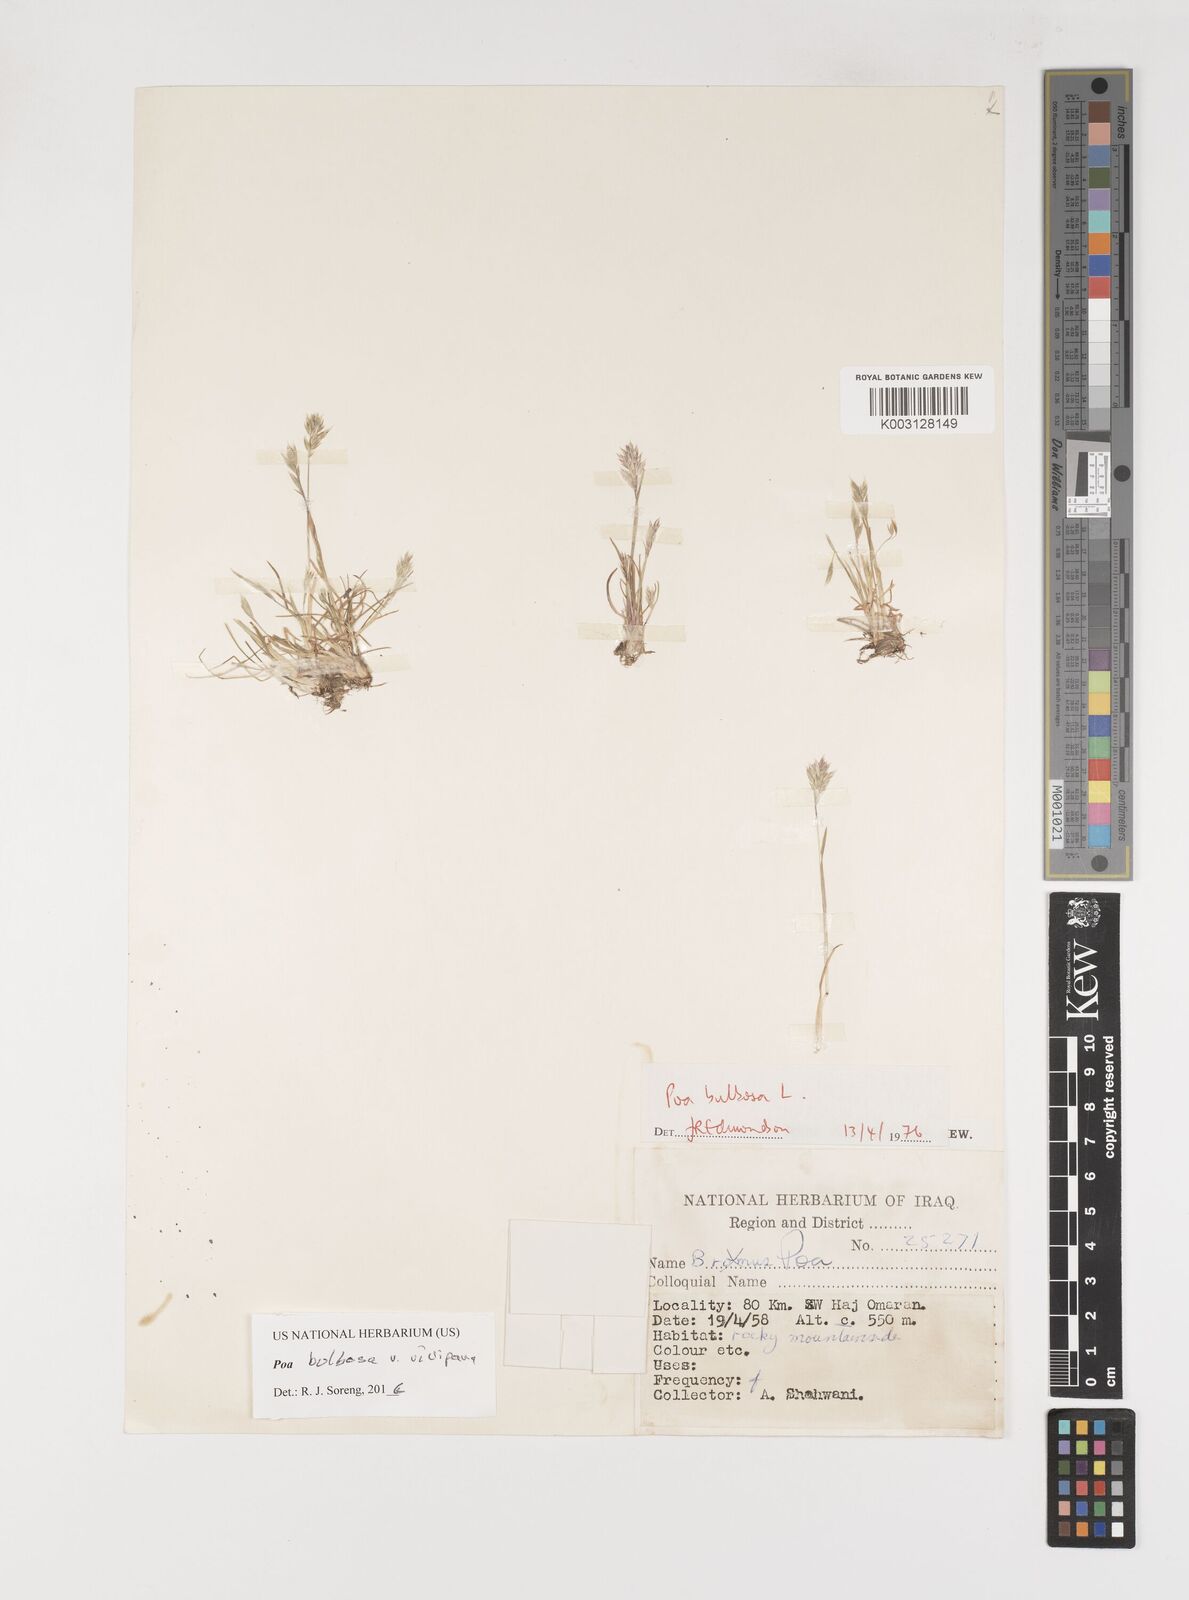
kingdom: Plantae
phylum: Tracheophyta
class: Liliopsida
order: Poales
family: Poaceae
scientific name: Poaceae
